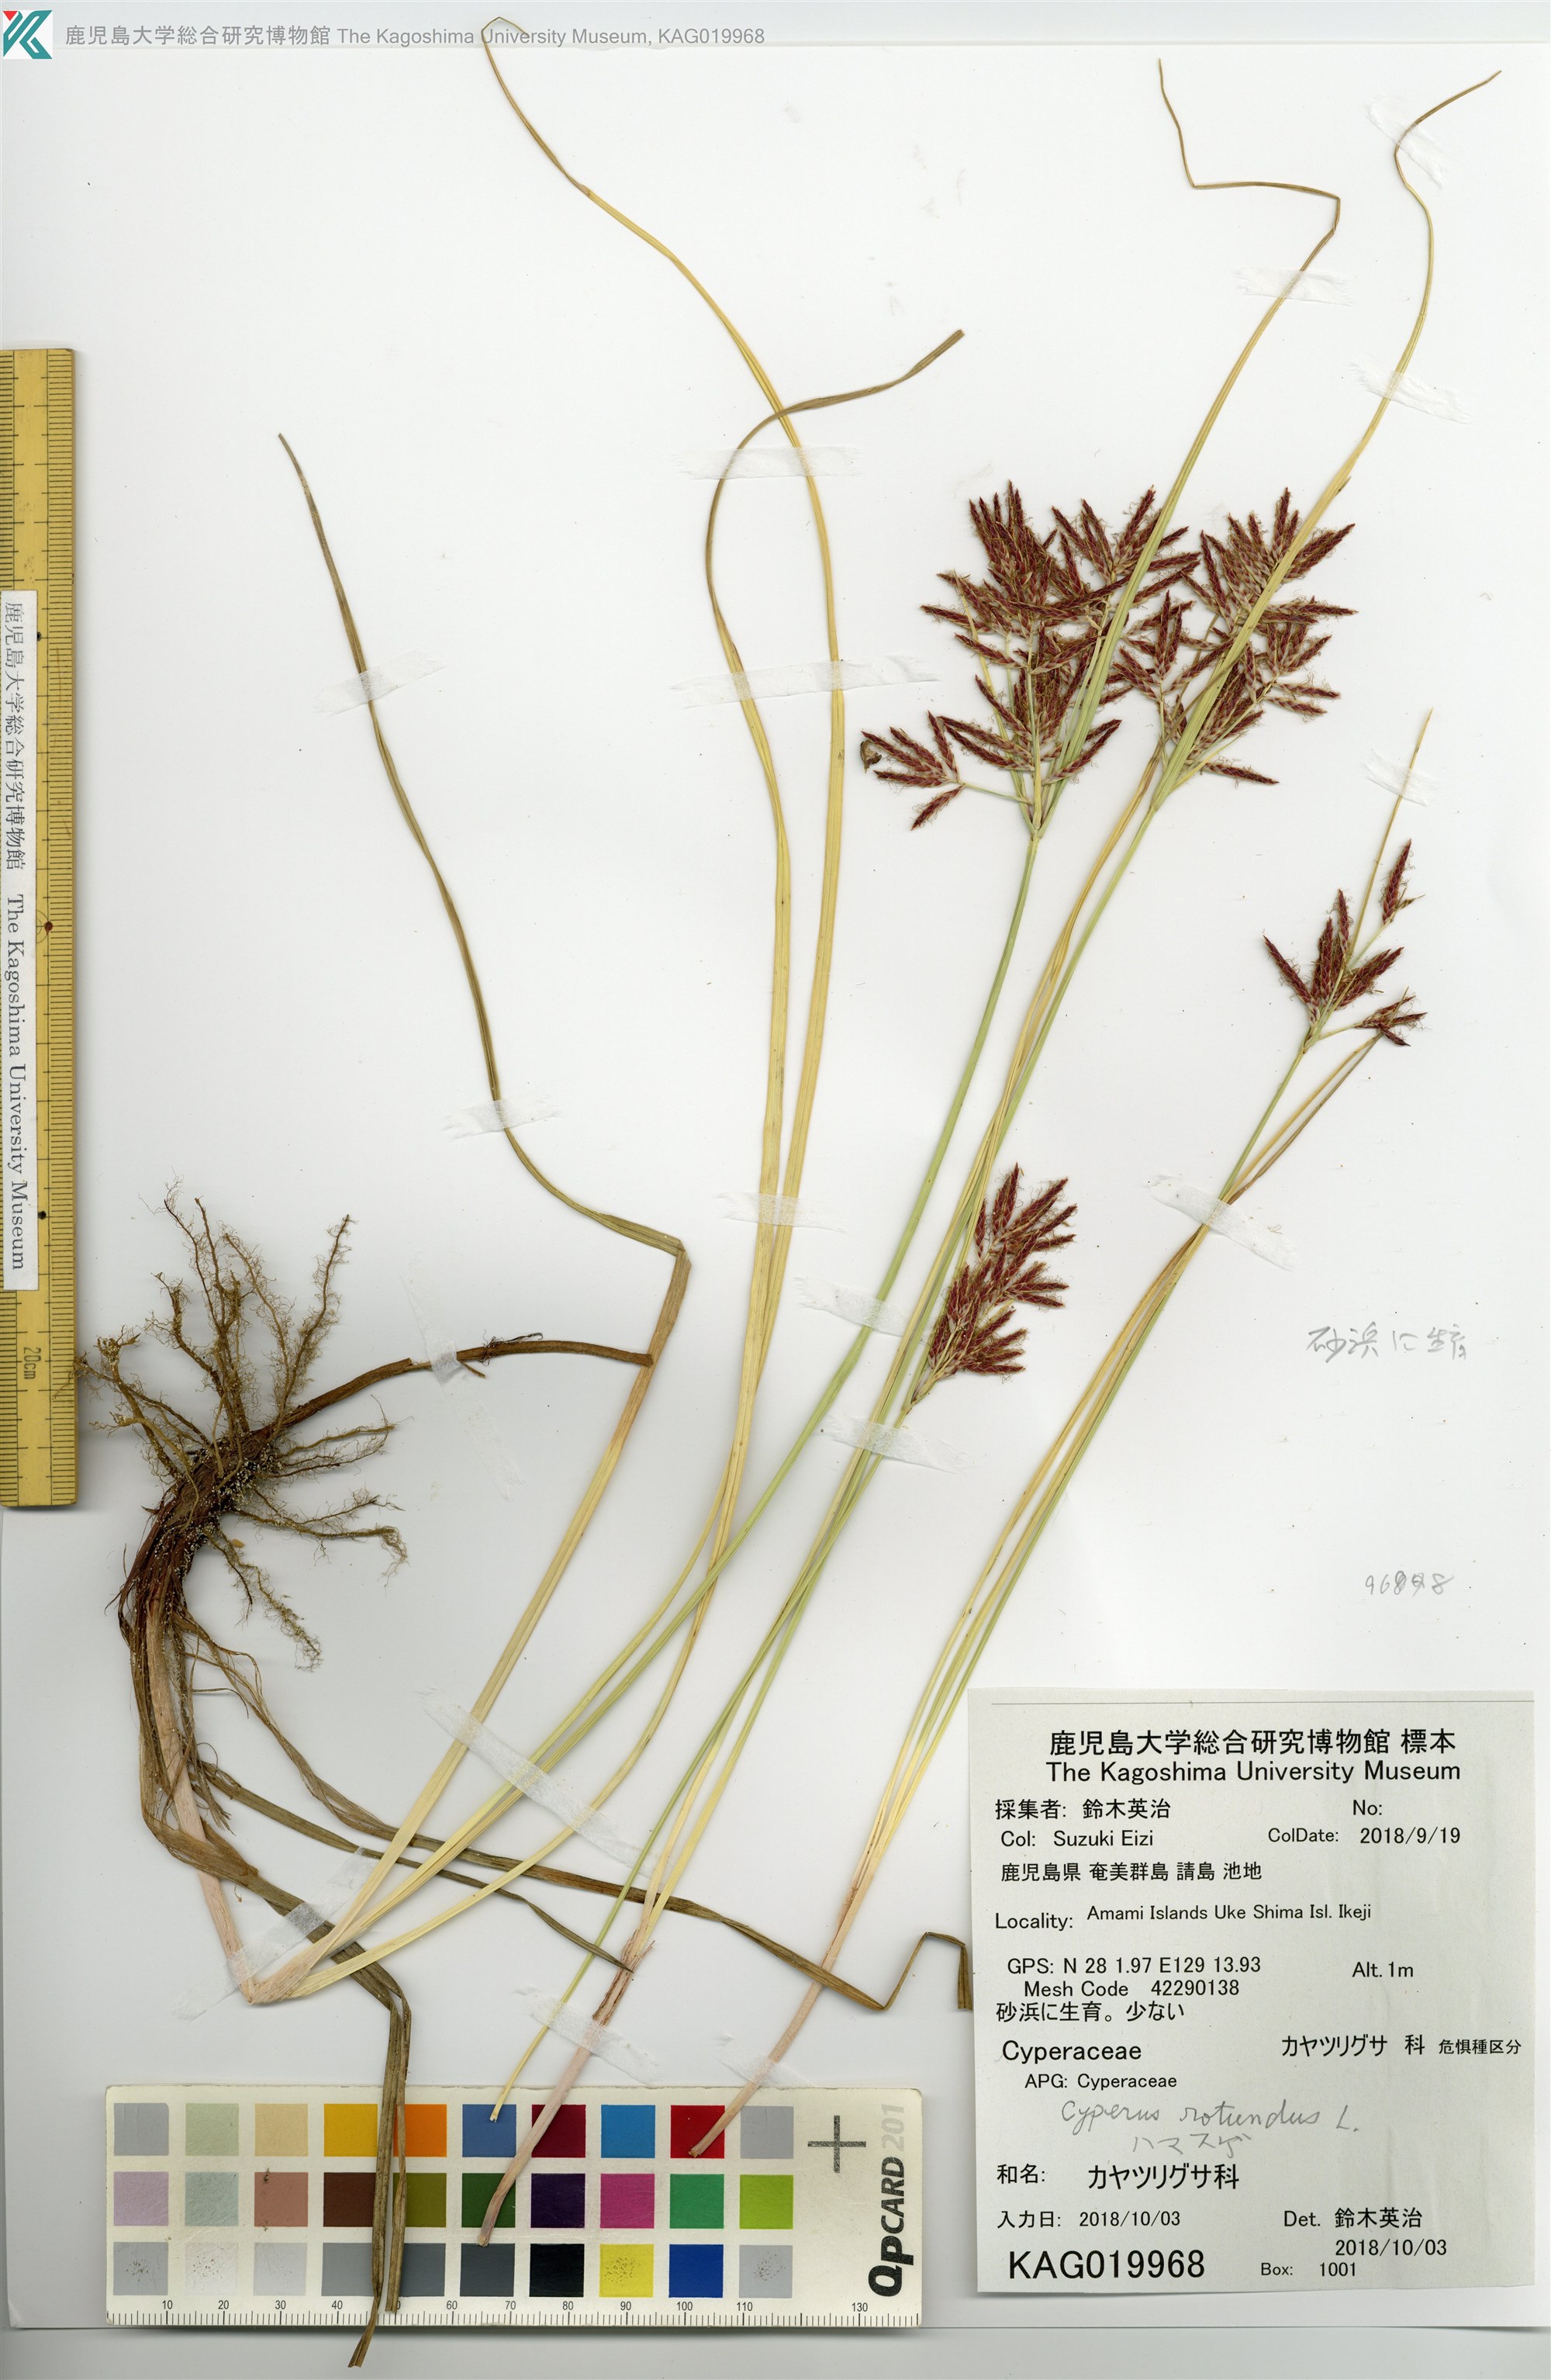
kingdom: Plantae
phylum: Tracheophyta
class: Liliopsida
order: Poales
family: Cyperaceae
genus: Cyperus
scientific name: Cyperus rotundus
